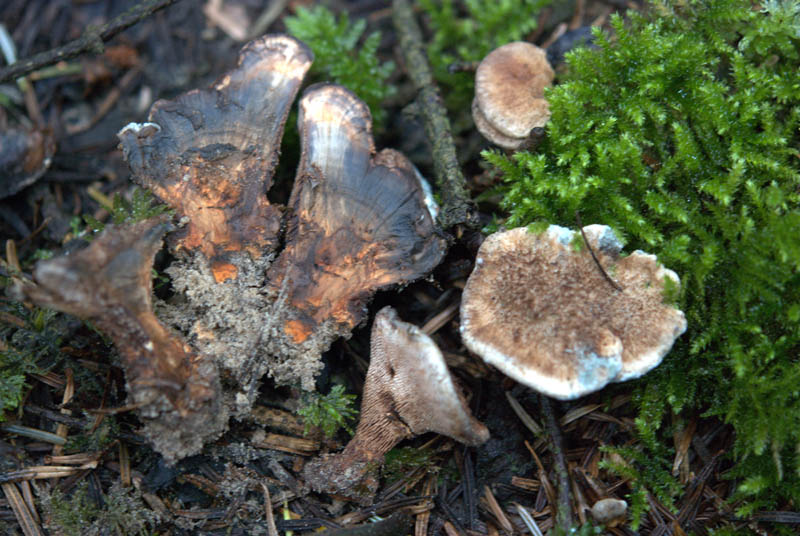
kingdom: Fungi
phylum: Basidiomycota
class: Agaricomycetes
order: Thelephorales
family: Bankeraceae
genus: Hydnellum
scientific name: Hydnellum caeruleum
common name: blålig korkpigsvamp
